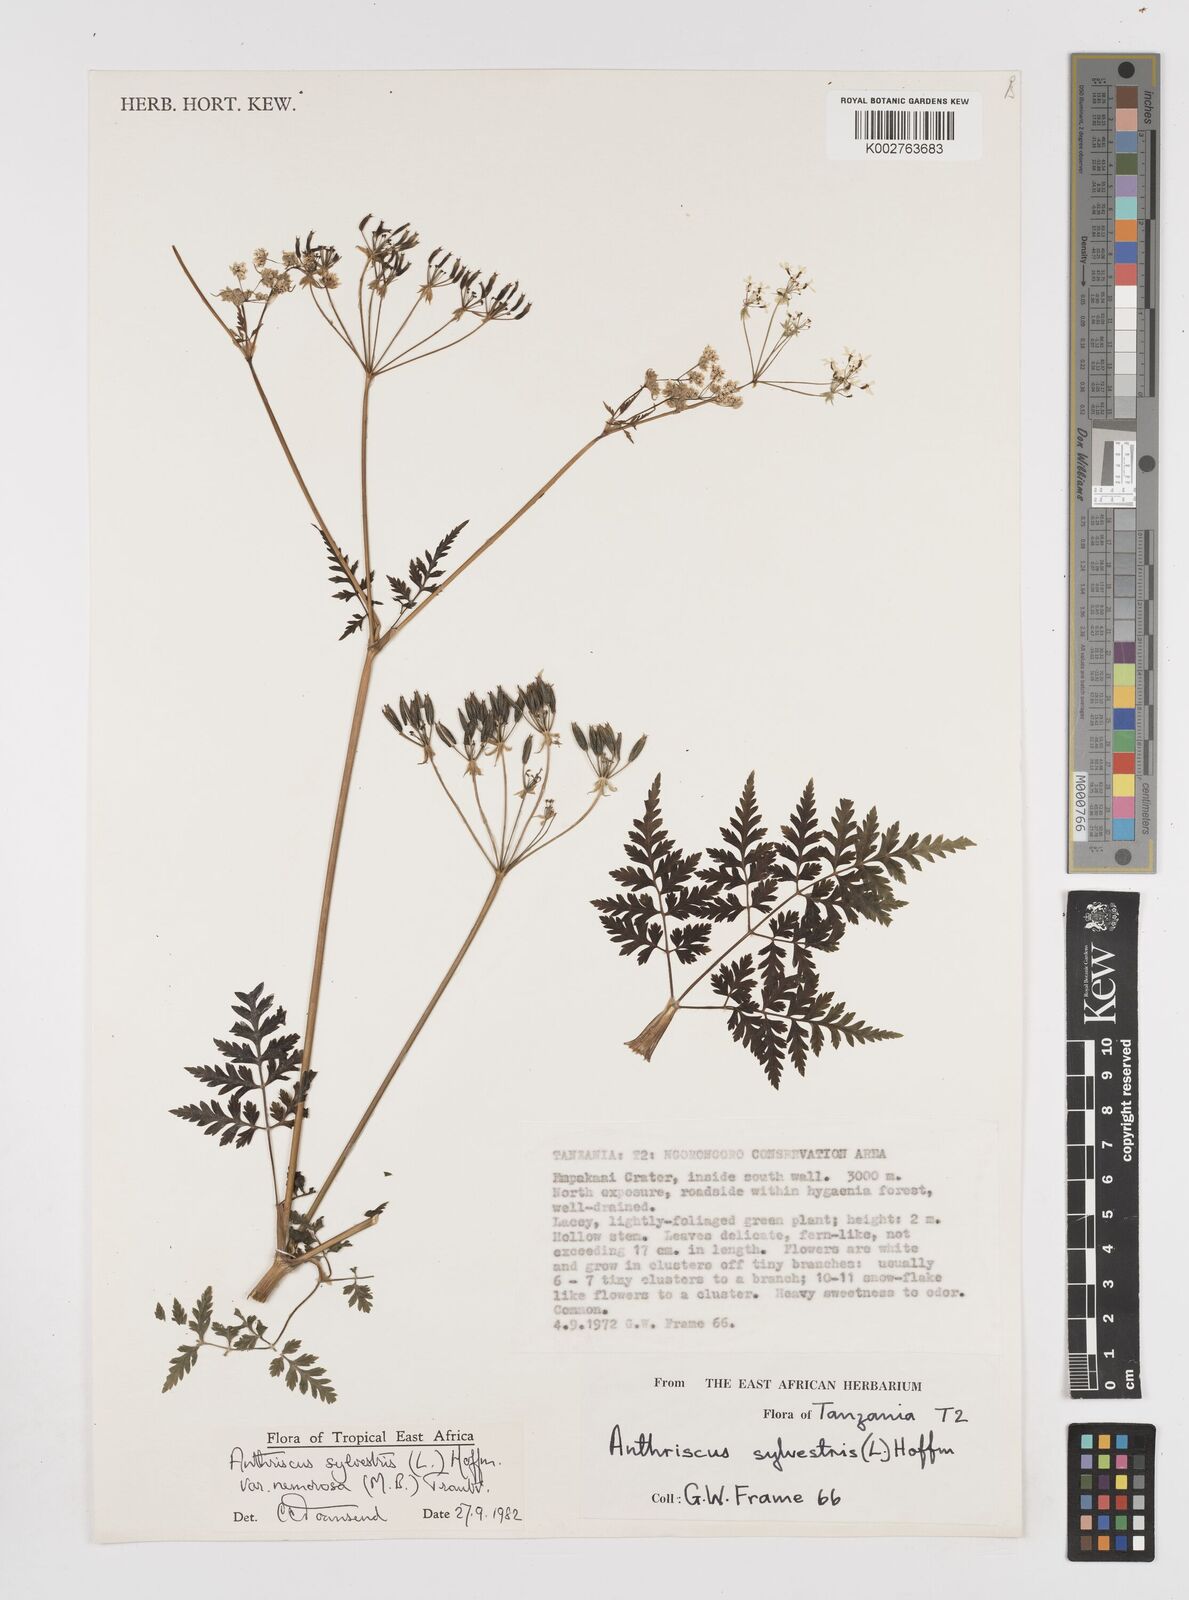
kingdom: Plantae
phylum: Tracheophyta
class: Magnoliopsida
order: Apiales
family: Apiaceae
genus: Anthriscus
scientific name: Anthriscus sylvestris
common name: Cow parsley
